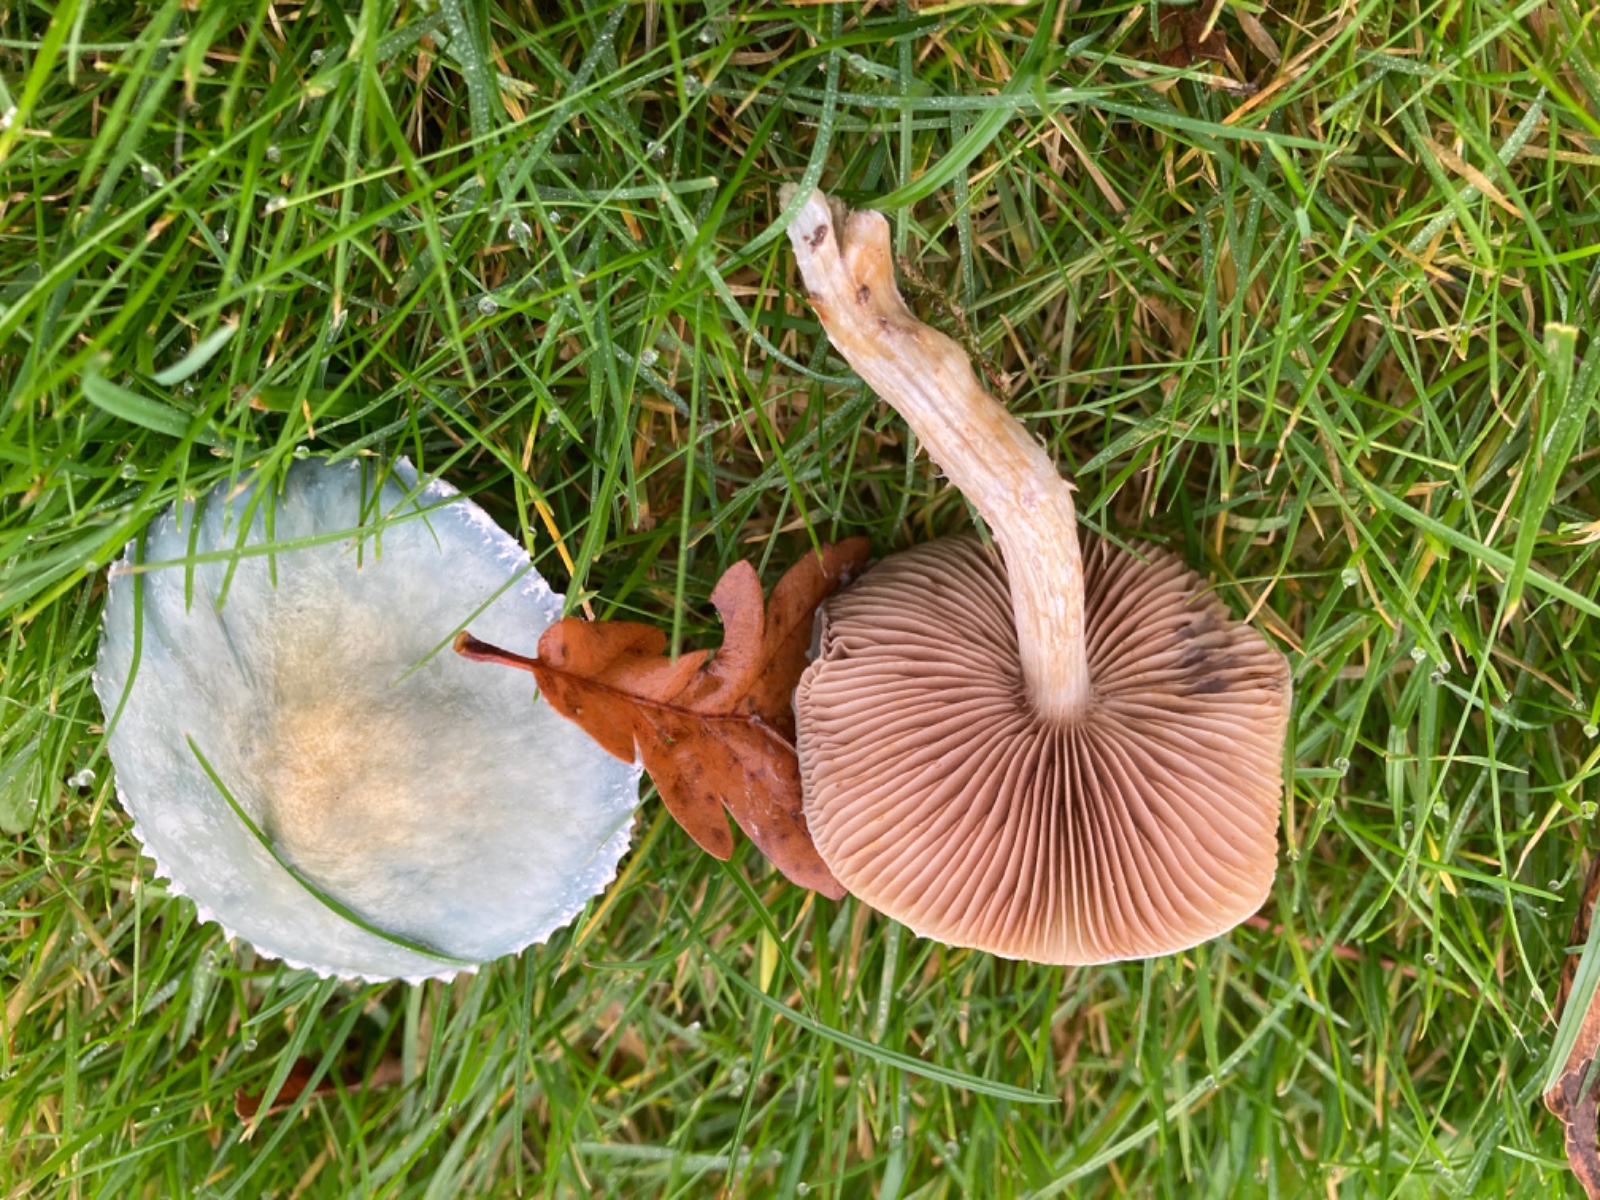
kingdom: Fungi
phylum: Basidiomycota
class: Agaricomycetes
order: Agaricales
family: Strophariaceae
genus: Stropharia
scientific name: Stropharia cyanea
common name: blågrøn bredblad
